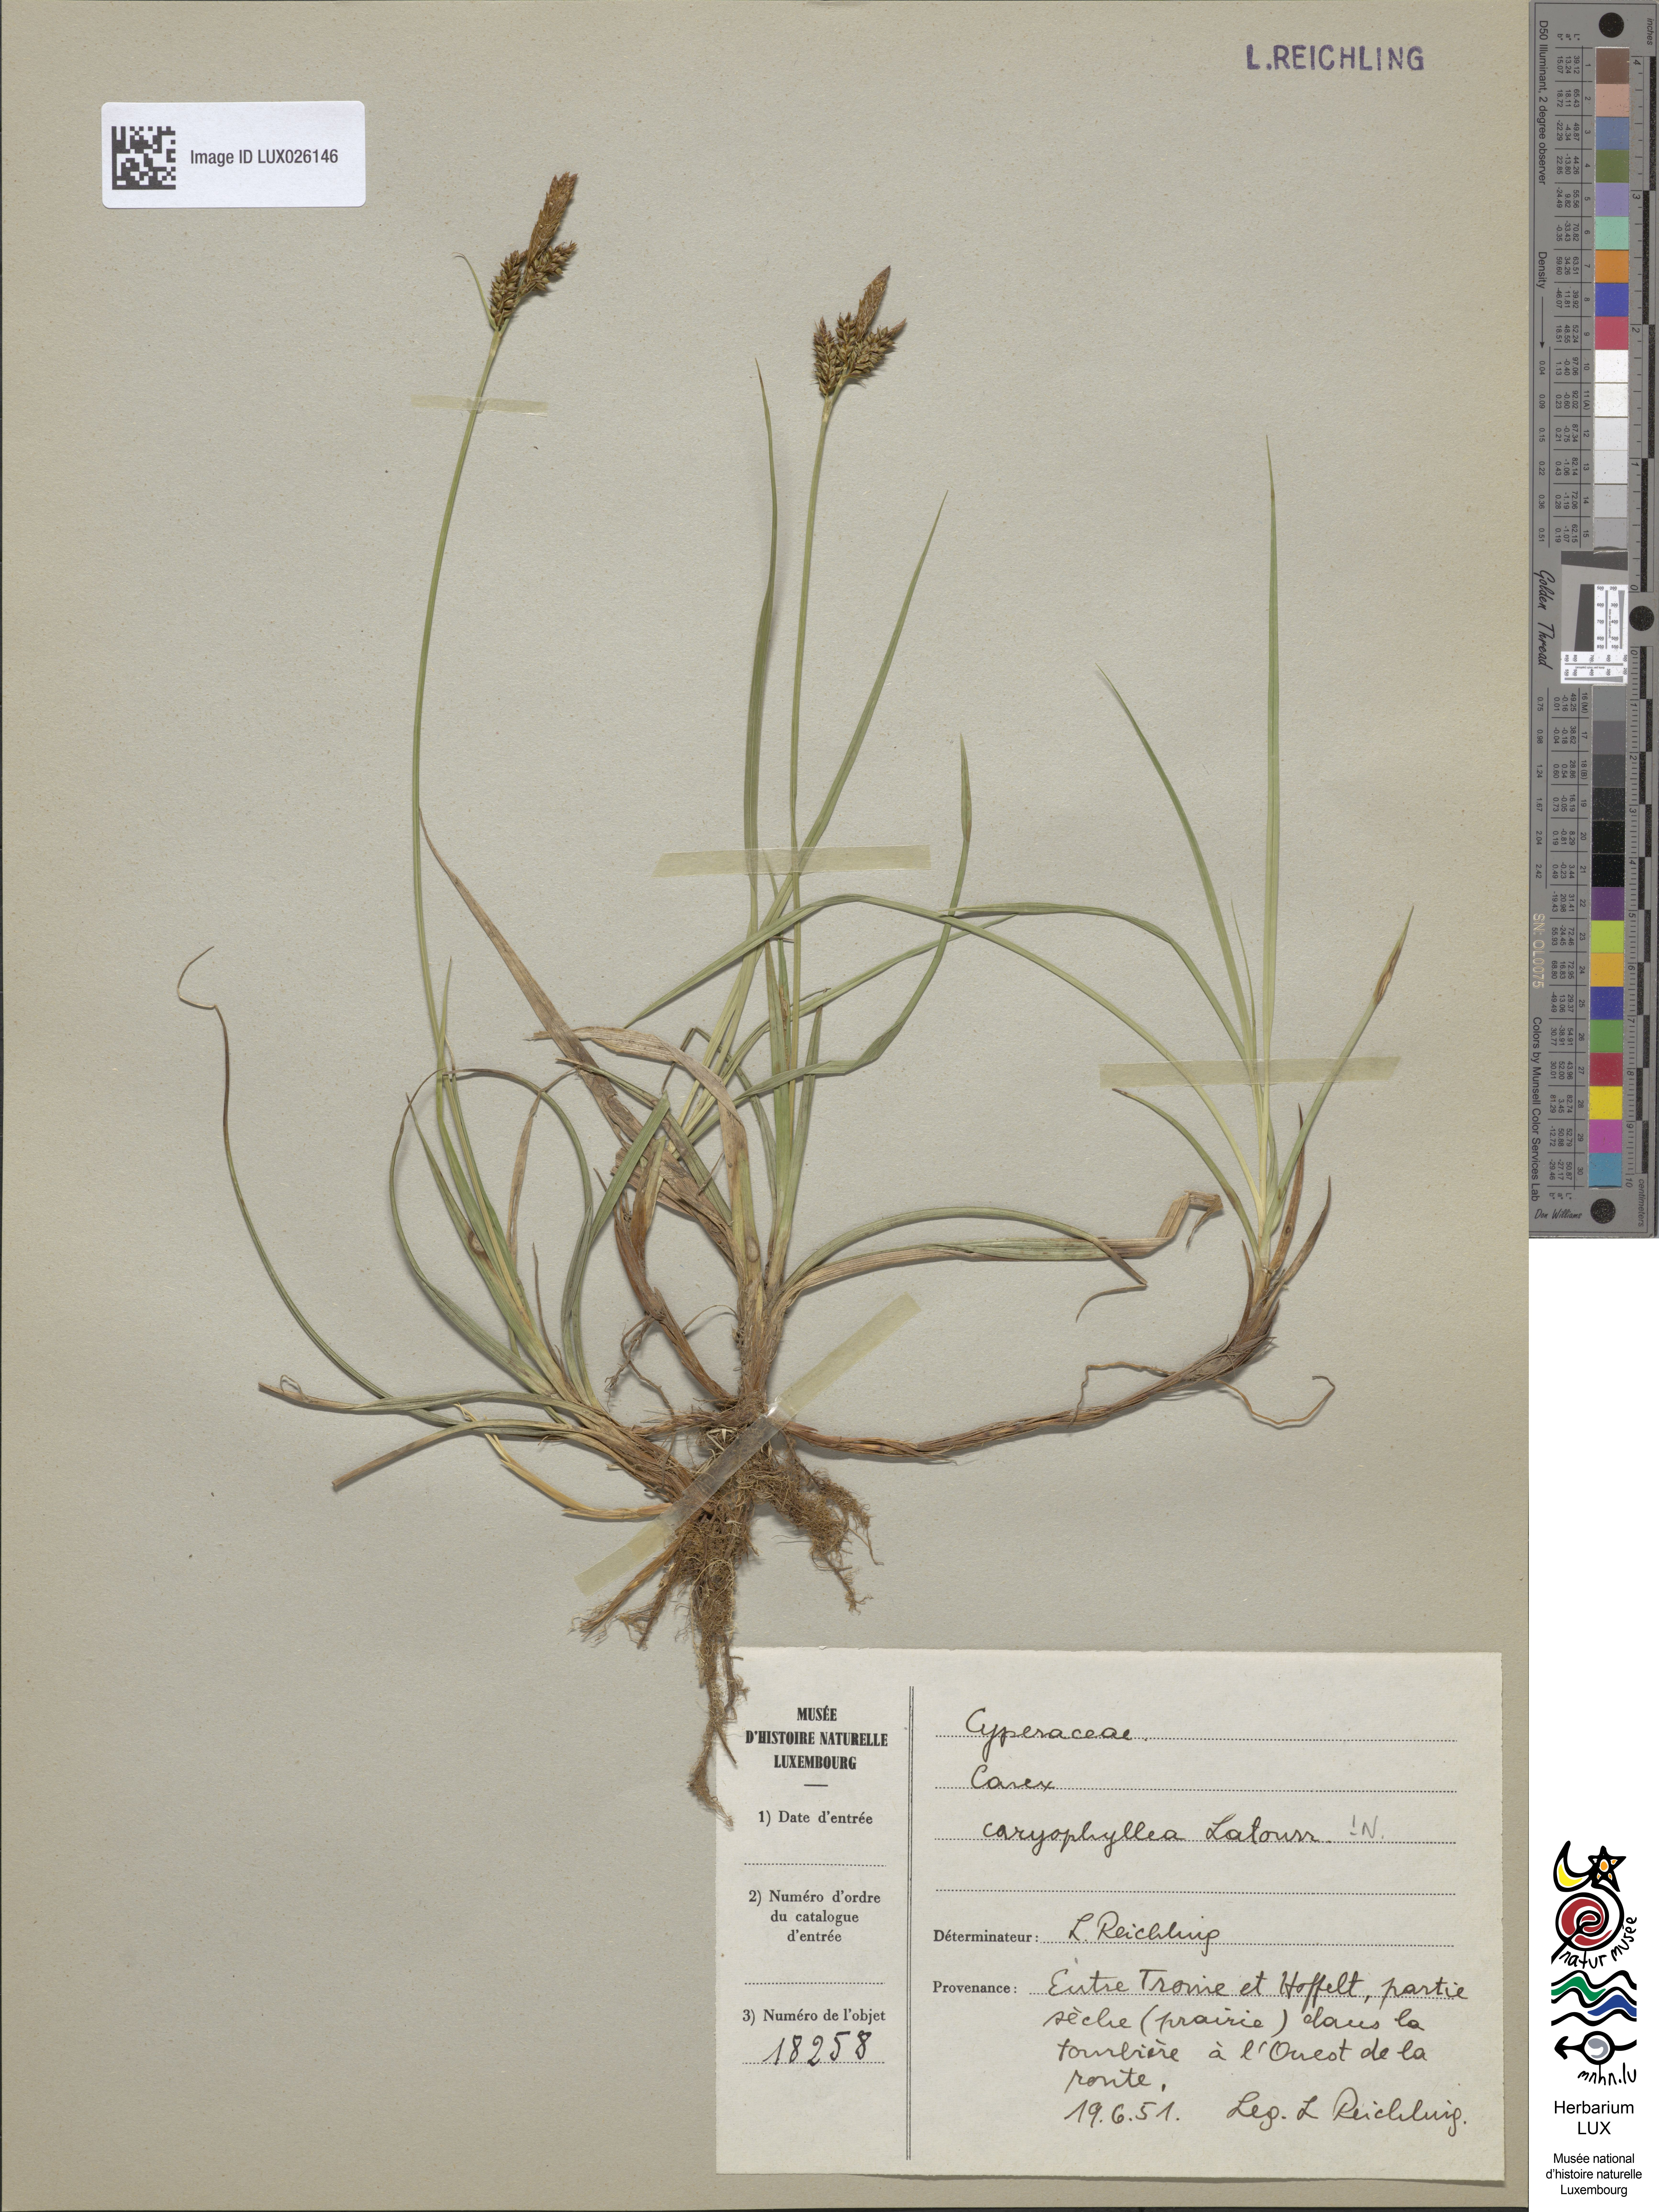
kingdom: Plantae
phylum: Tracheophyta
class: Liliopsida
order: Poales
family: Cyperaceae
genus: Carex
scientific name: Carex caryophyllea
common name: Spring sedge
